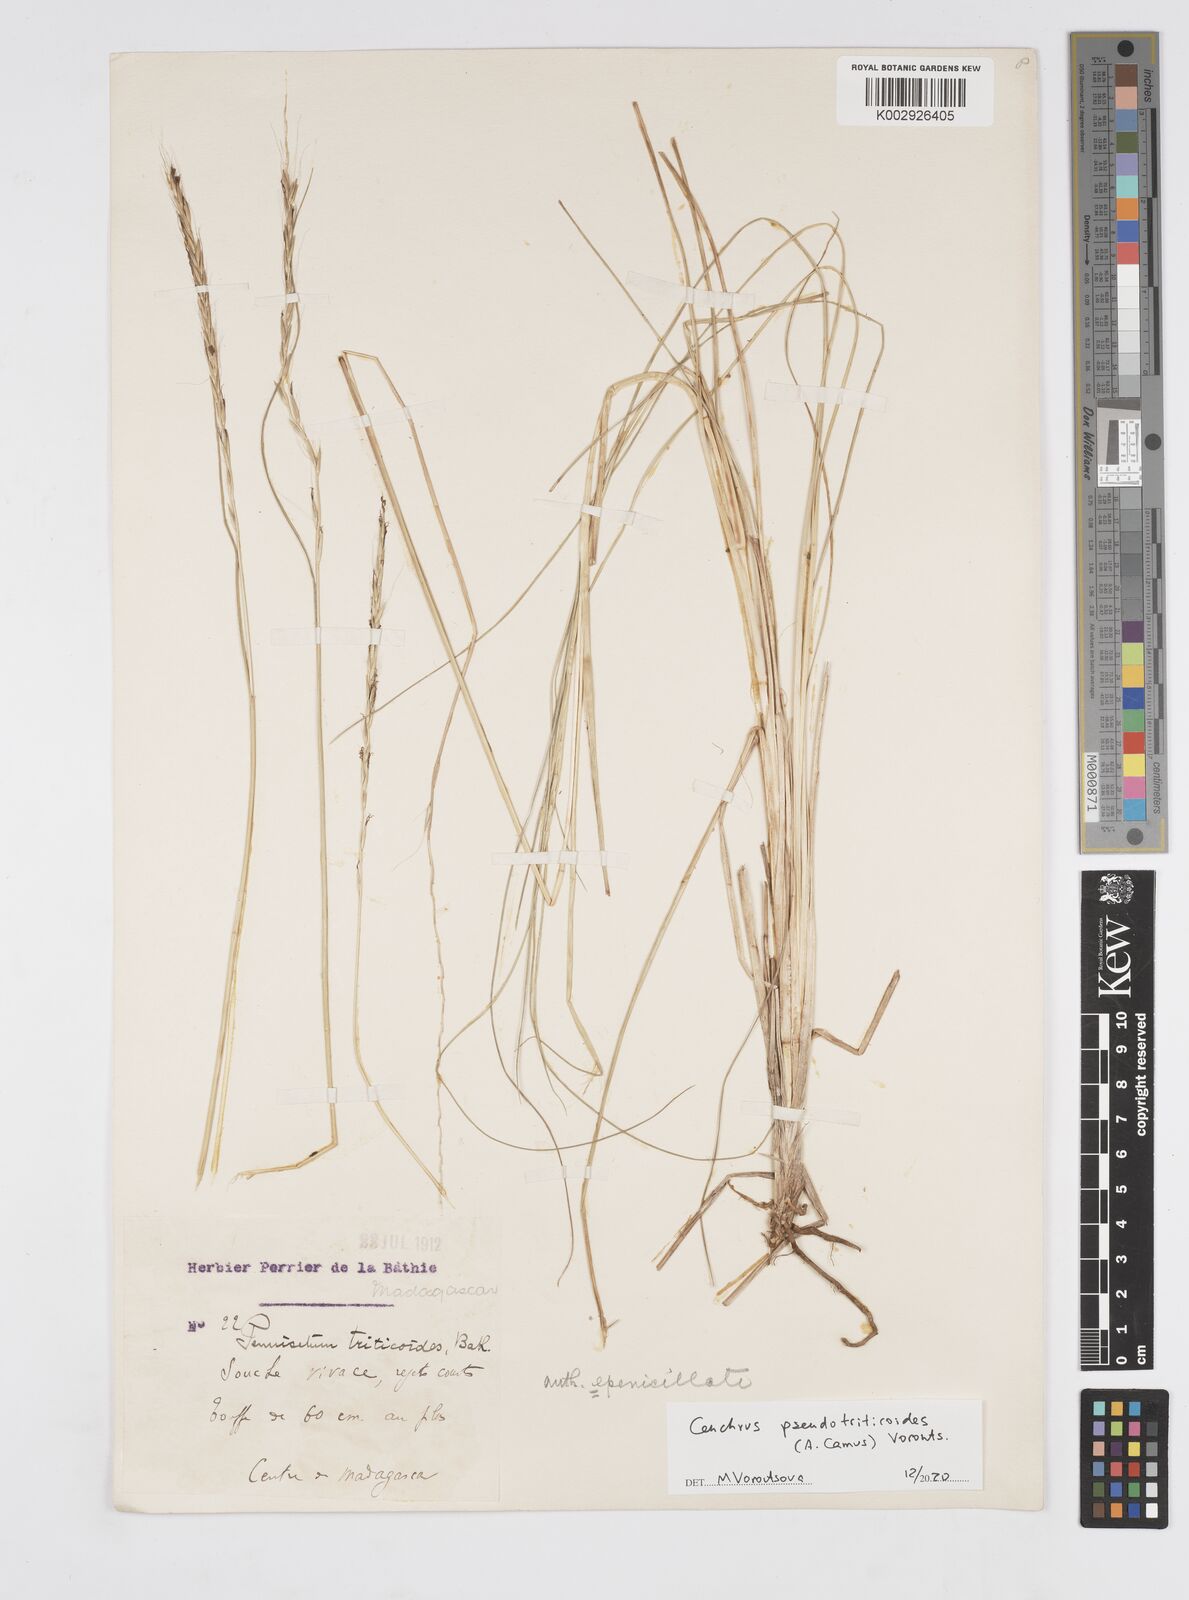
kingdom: Plantae
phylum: Tracheophyta
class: Liliopsida
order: Poales
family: Poaceae
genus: Cenchrus
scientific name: Cenchrus pseudotriticoides
